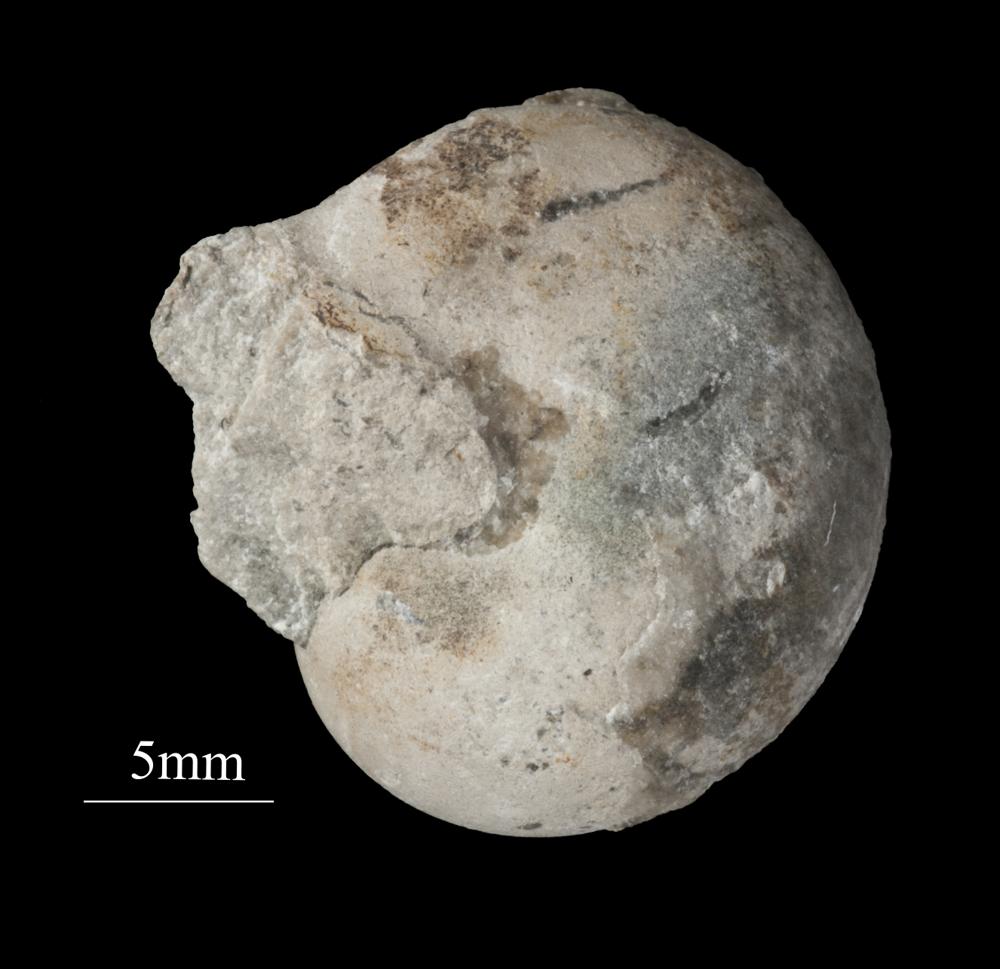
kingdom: Animalia
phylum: Mollusca
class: Gastropoda
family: Bellerophontidae
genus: Bellerophon
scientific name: Bellerophon
